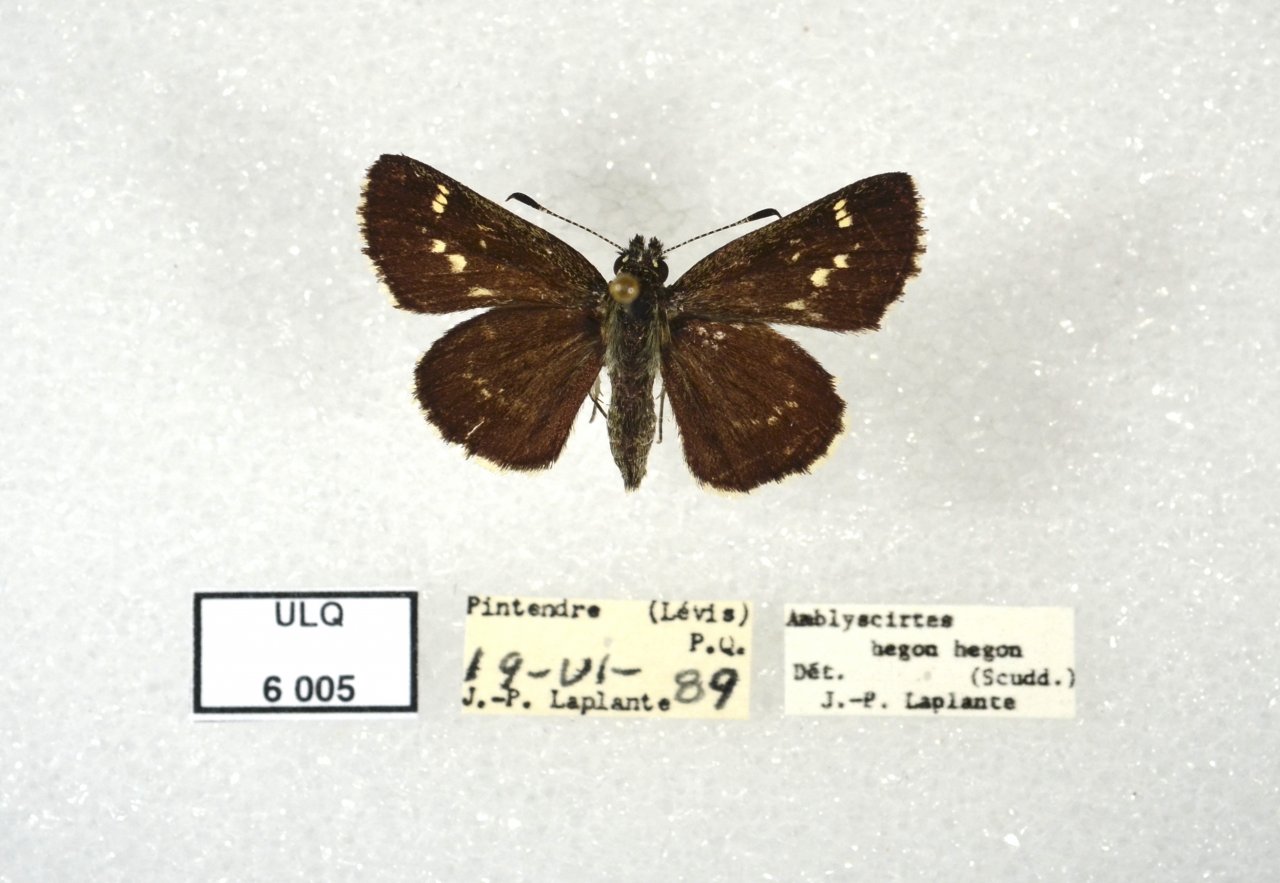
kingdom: Animalia
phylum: Arthropoda
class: Insecta
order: Lepidoptera
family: Hesperiidae
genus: Mastor
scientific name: Mastor hegon
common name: Pepper and Salt Skipper
